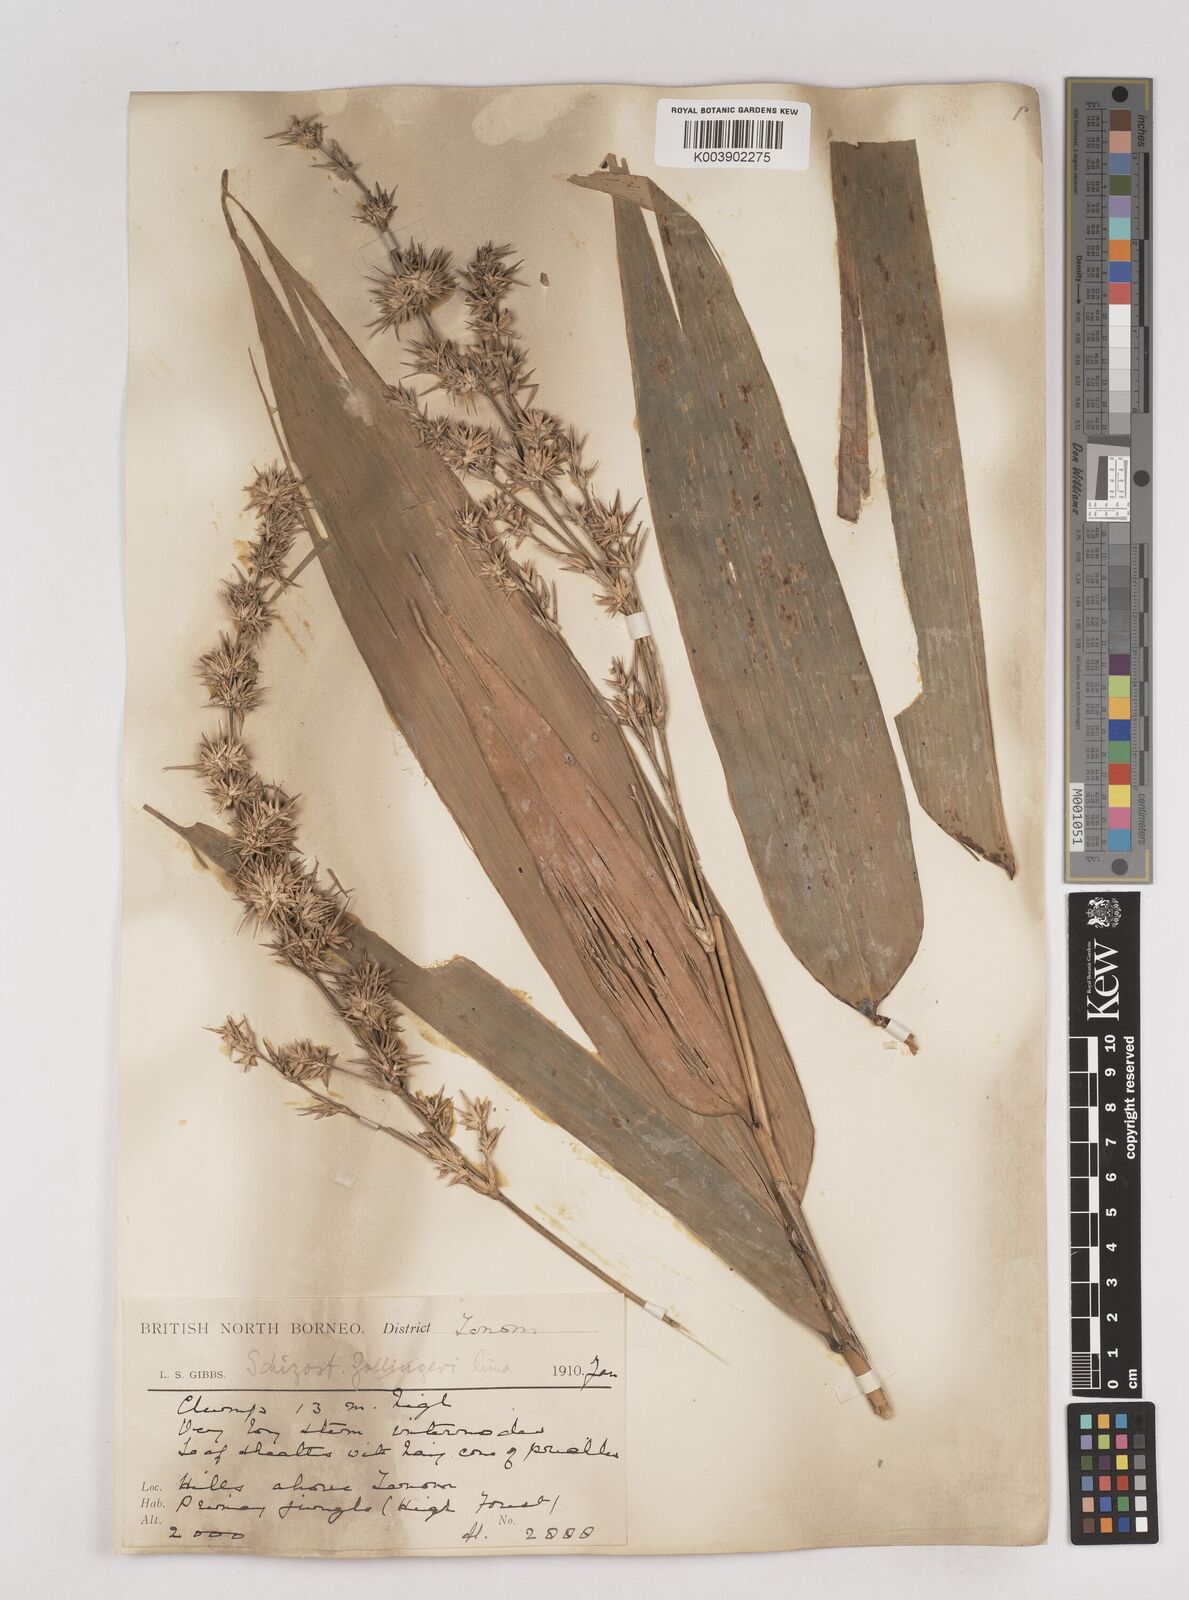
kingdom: Plantae
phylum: Tracheophyta
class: Liliopsida
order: Poales
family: Poaceae
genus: Schizostachyum
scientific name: Schizostachyum lima
